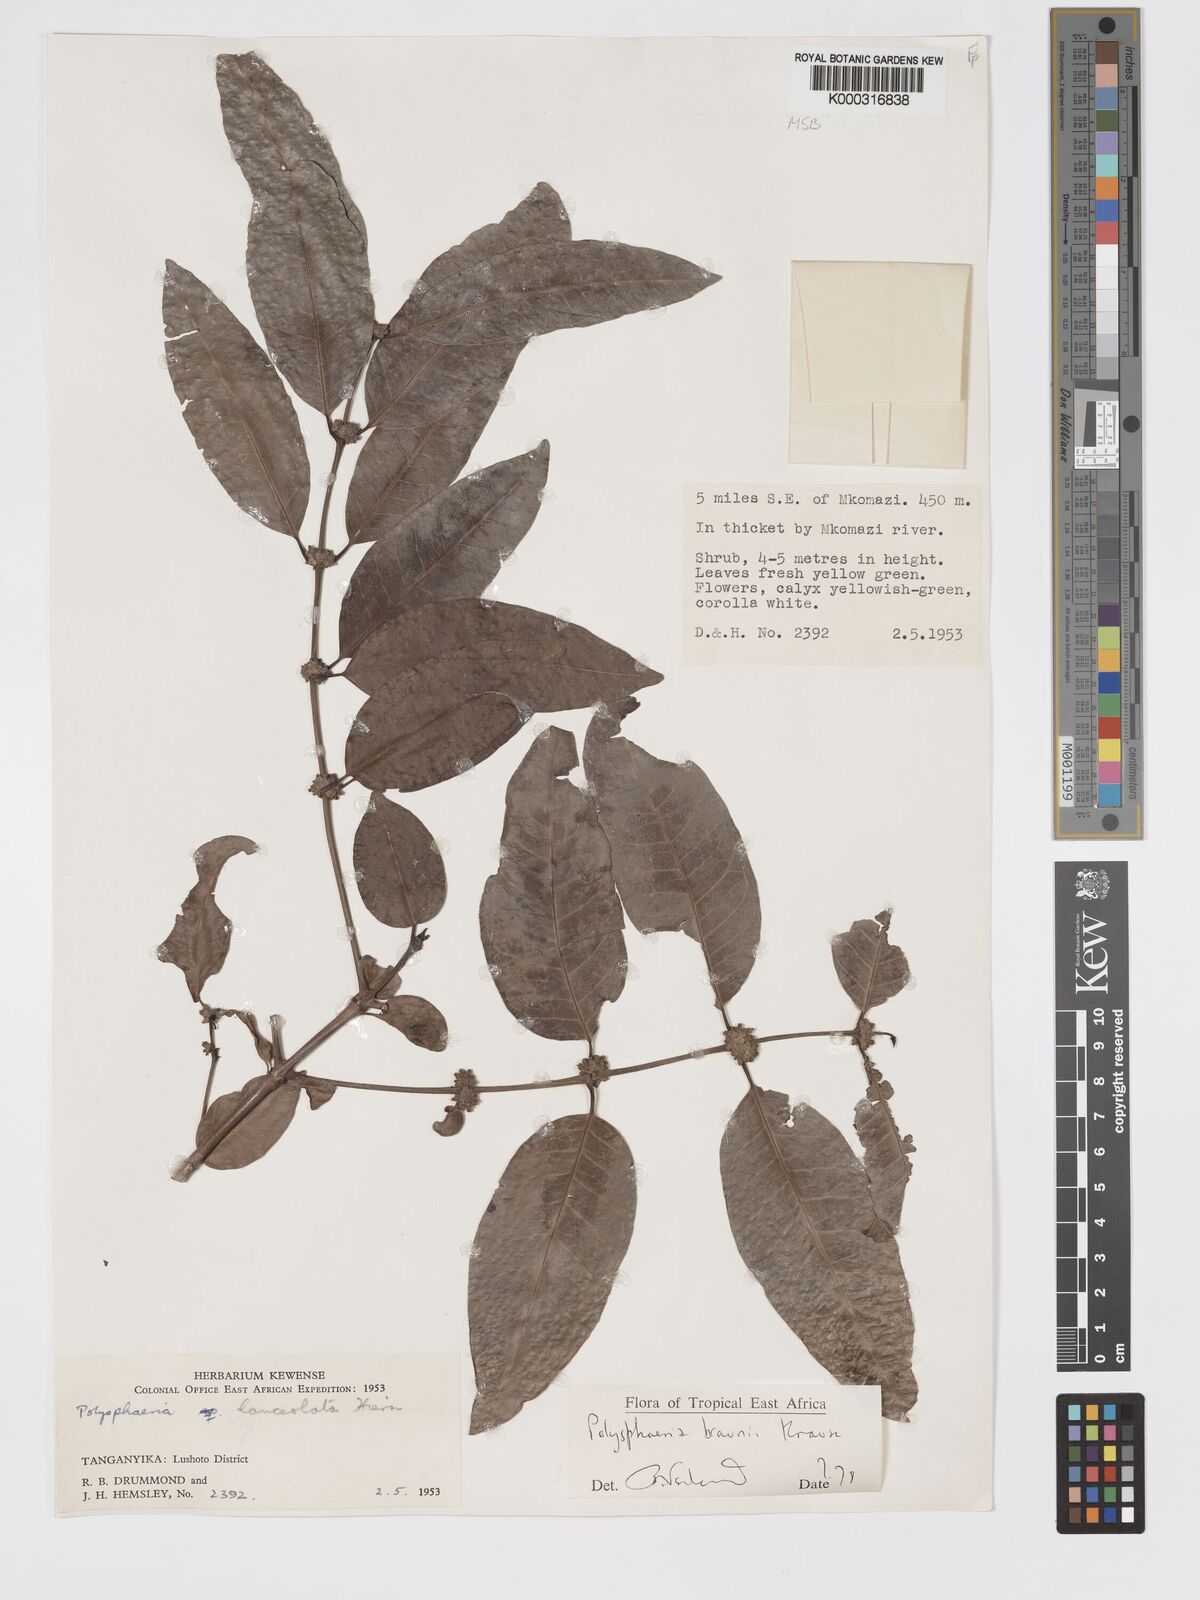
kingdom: Plantae
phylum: Tracheophyta
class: Magnoliopsida
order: Gentianales
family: Rubiaceae
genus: Polysphaeria
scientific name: Polysphaeria braunii
